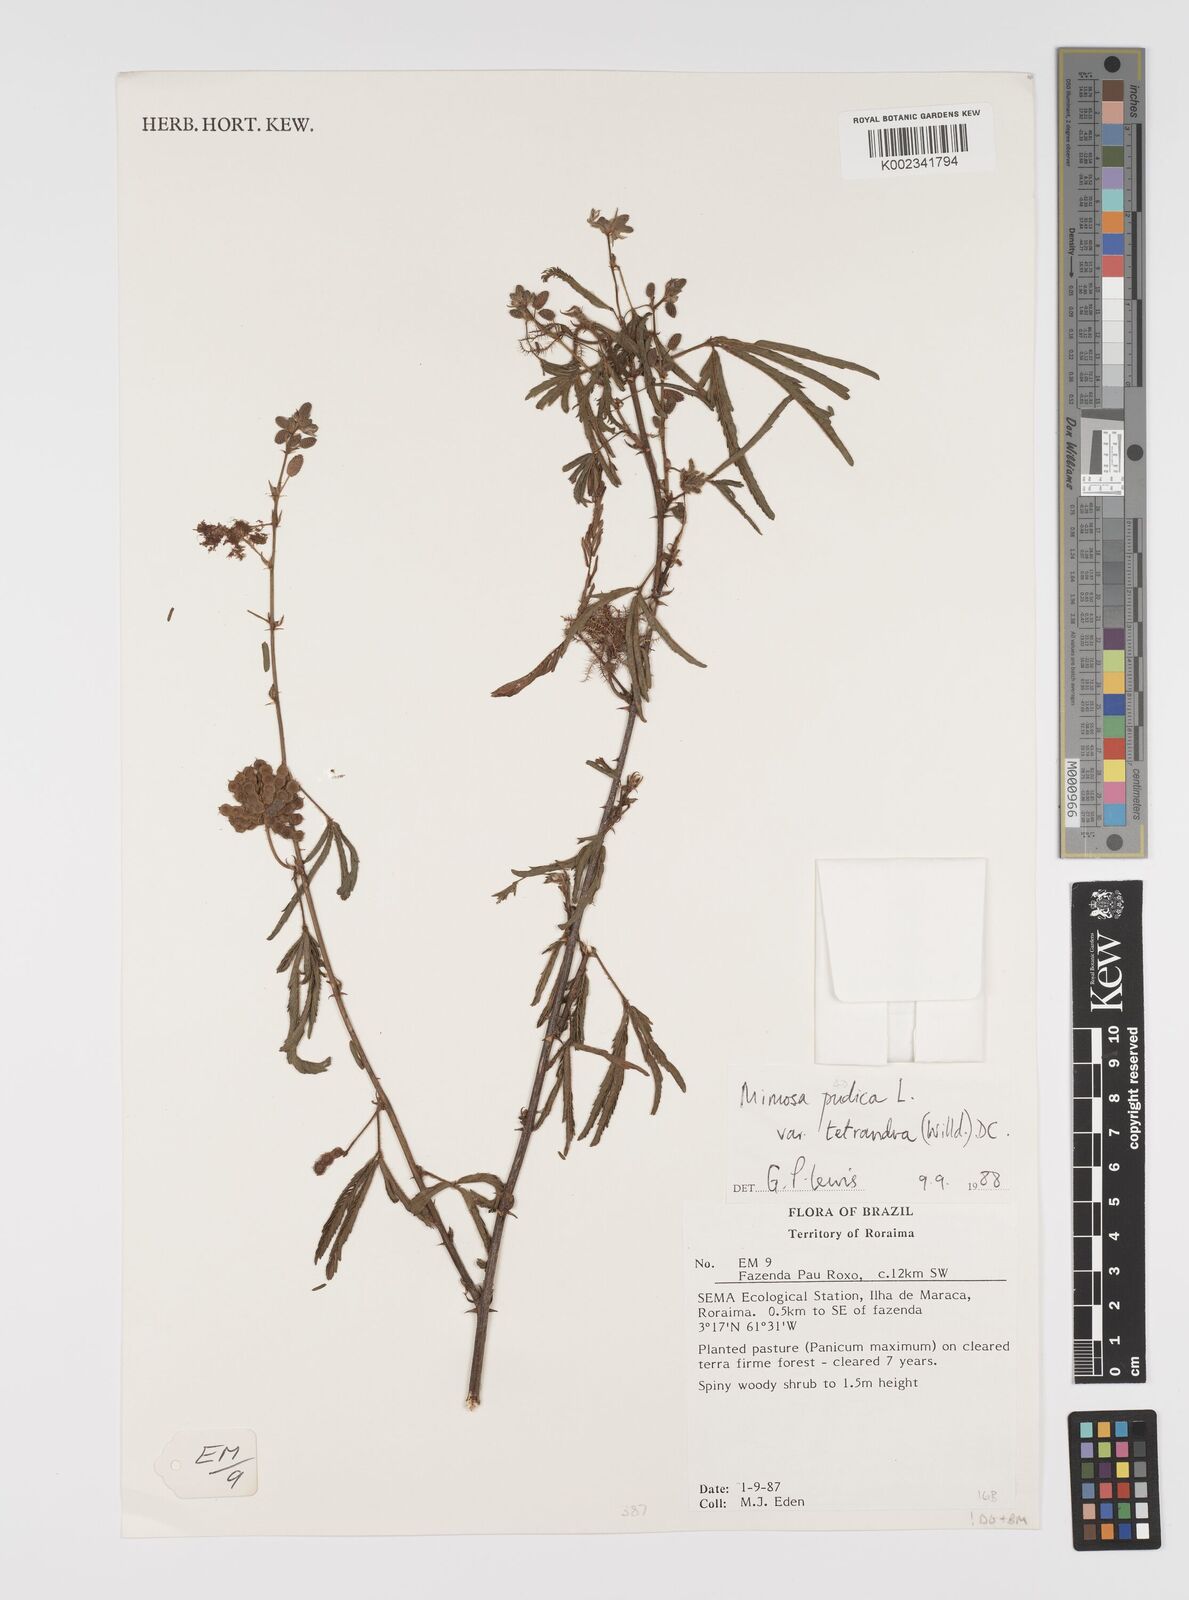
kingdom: Plantae
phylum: Tracheophyta
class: Magnoliopsida
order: Fabales
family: Fabaceae
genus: Mimosa
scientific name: Mimosa pudica
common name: Sensitive plant
